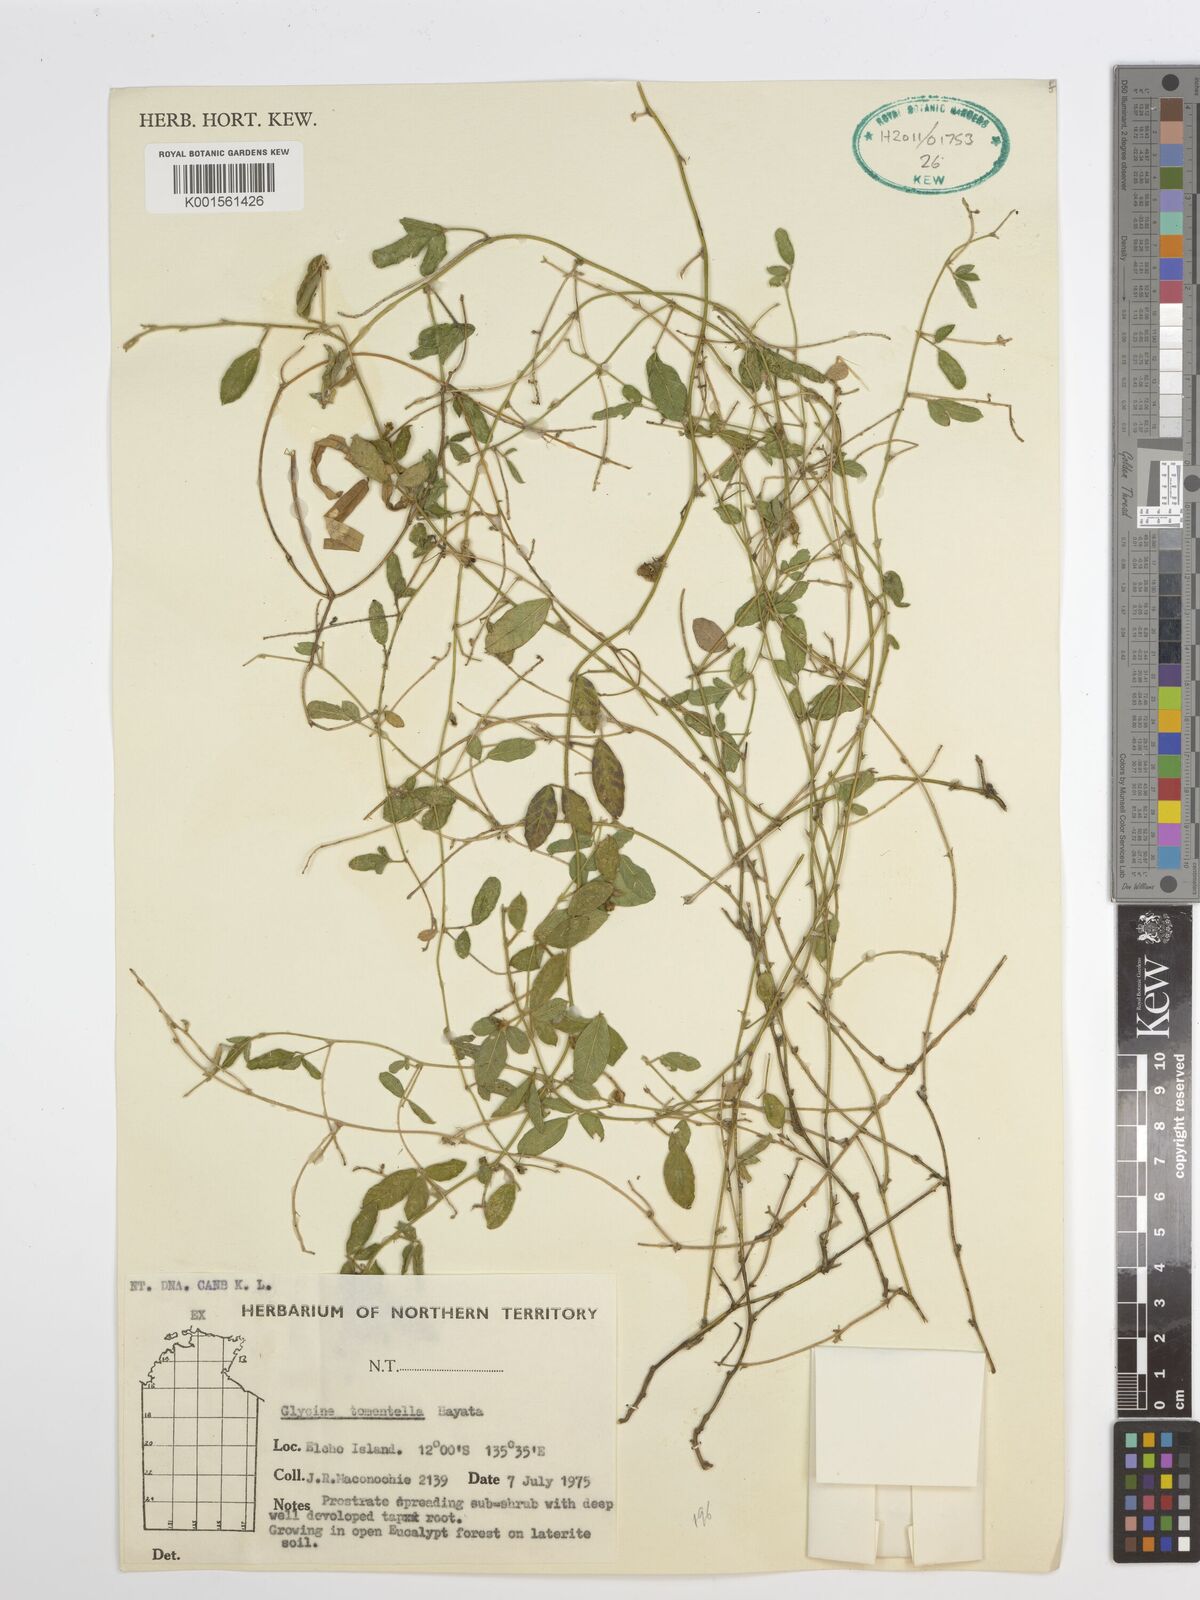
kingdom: Plantae
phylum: Tracheophyta
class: Magnoliopsida
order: Fabales
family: Fabaceae
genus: Glycine
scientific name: Glycine tomentella
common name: Hairy glycine
